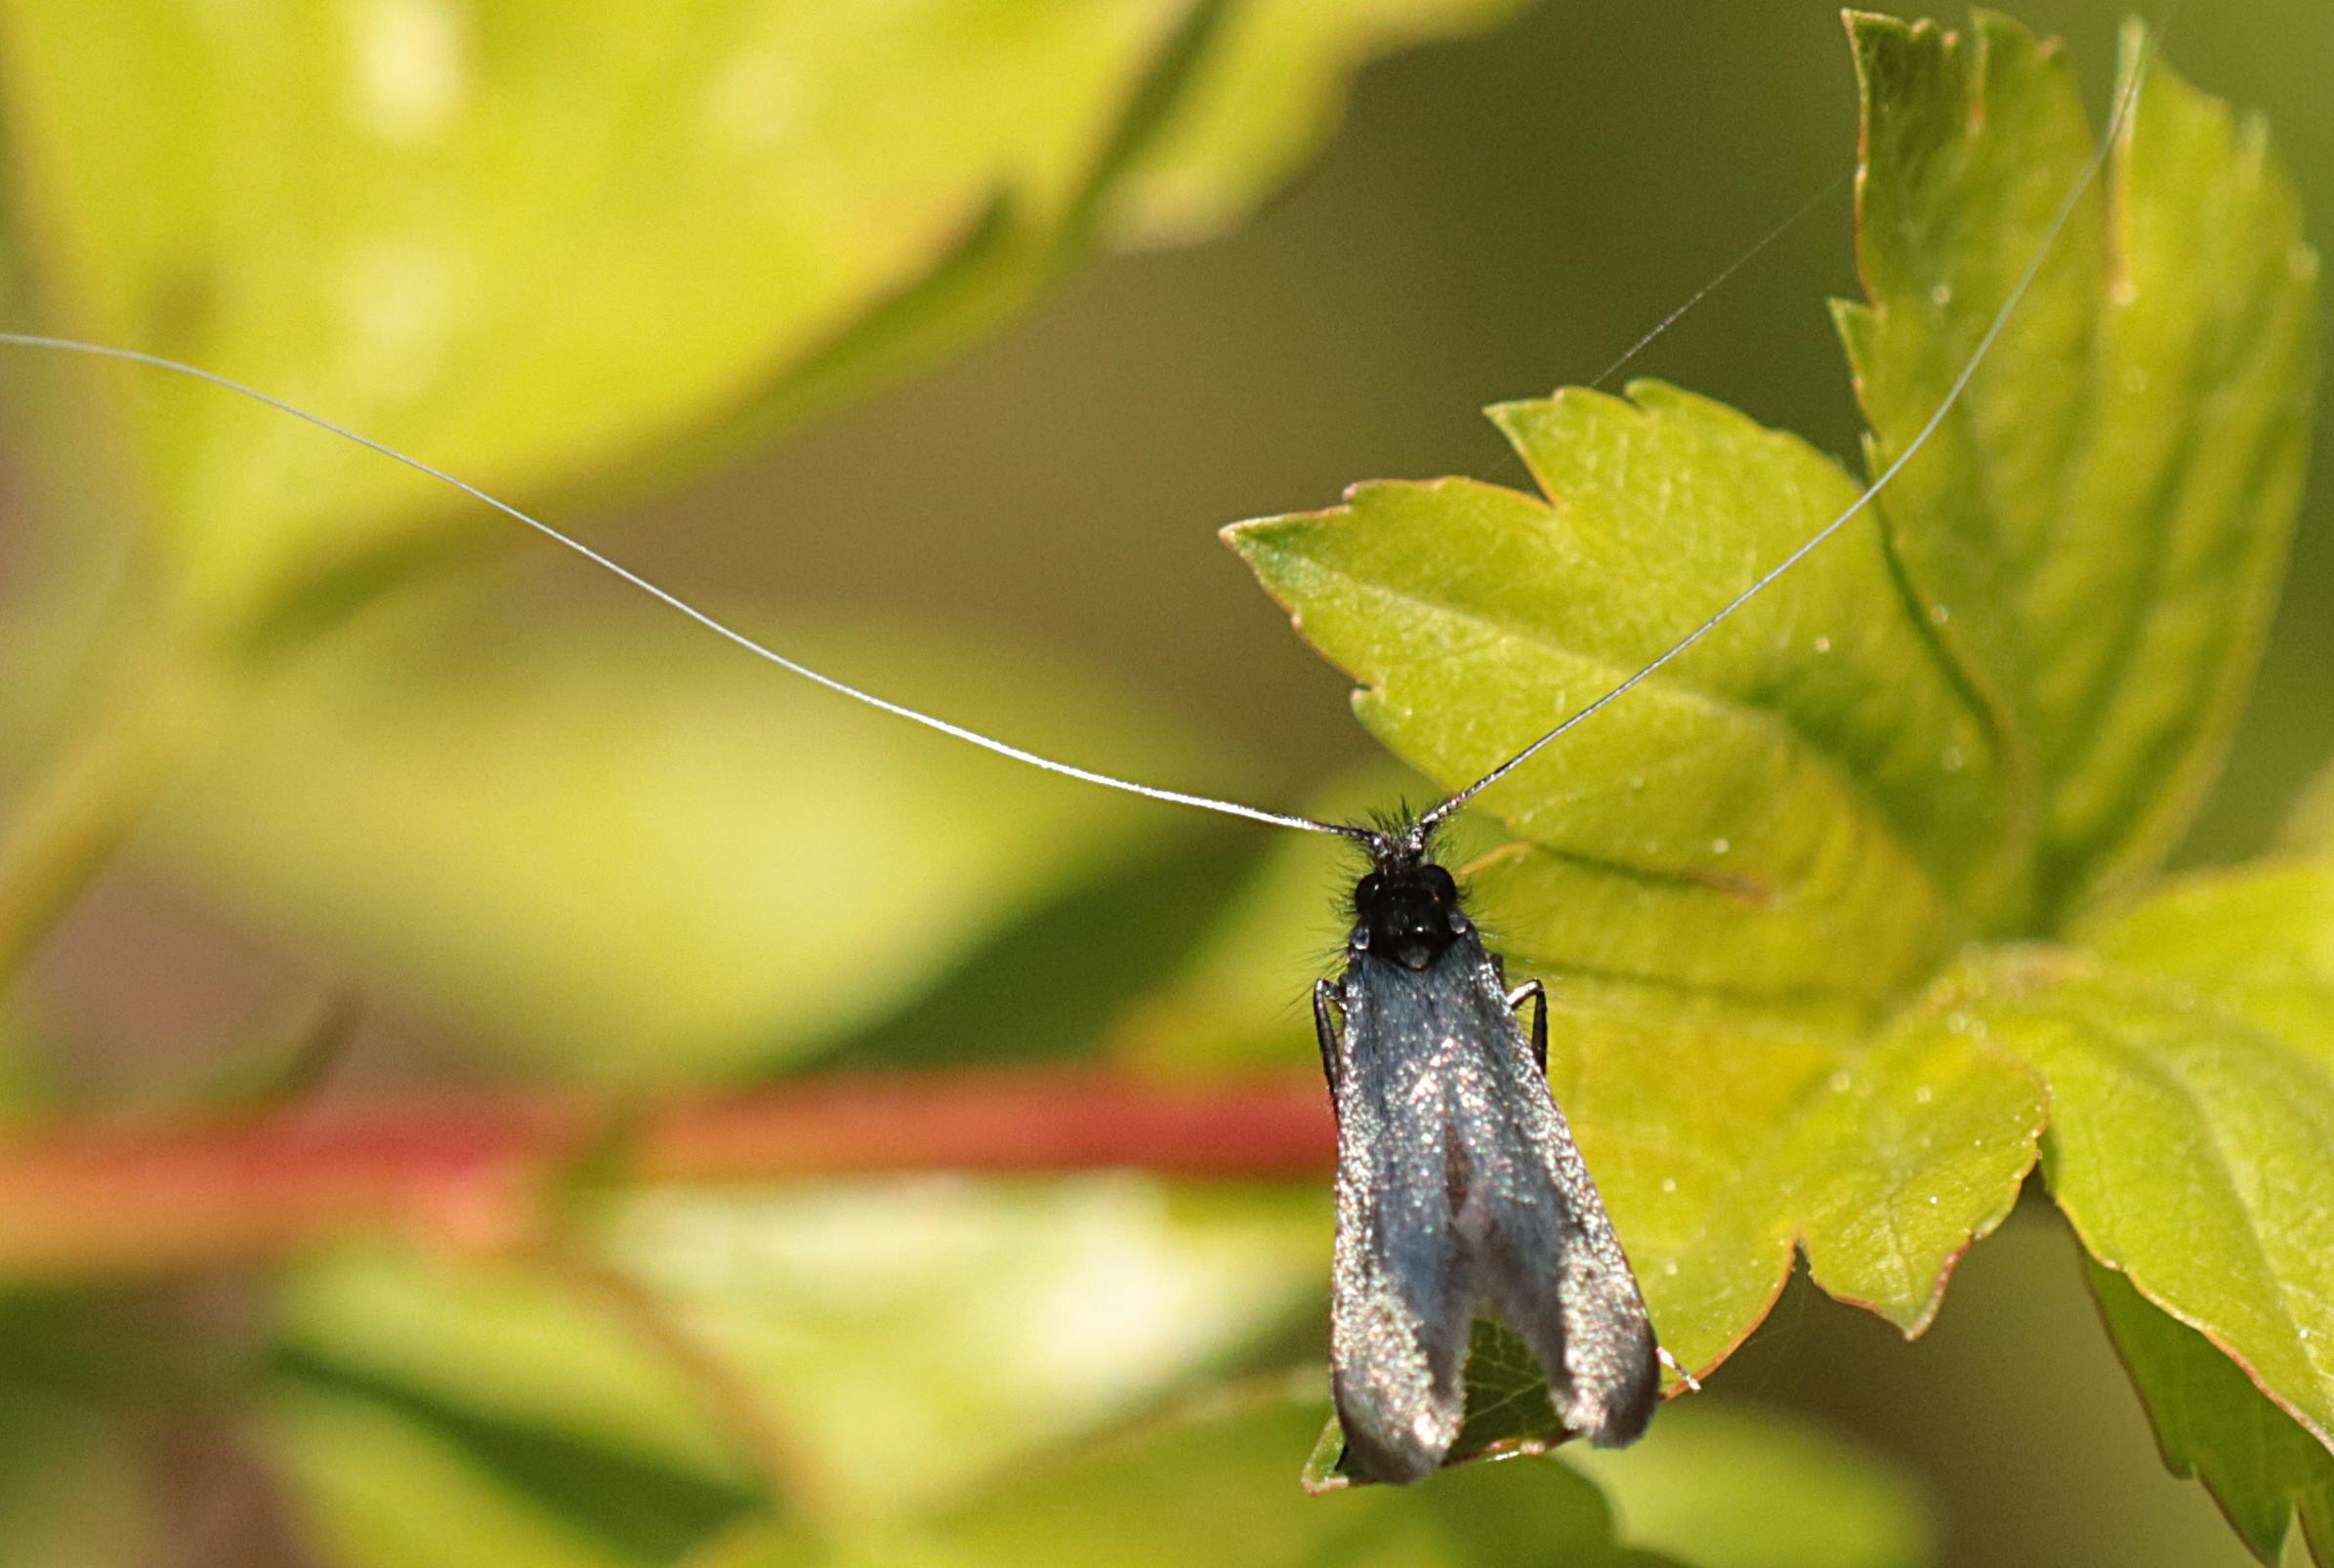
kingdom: Animalia
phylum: Arthropoda
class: Insecta
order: Lepidoptera
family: Adelidae
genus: Adela
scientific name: Adela viridella
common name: Egelanghornsmøl
